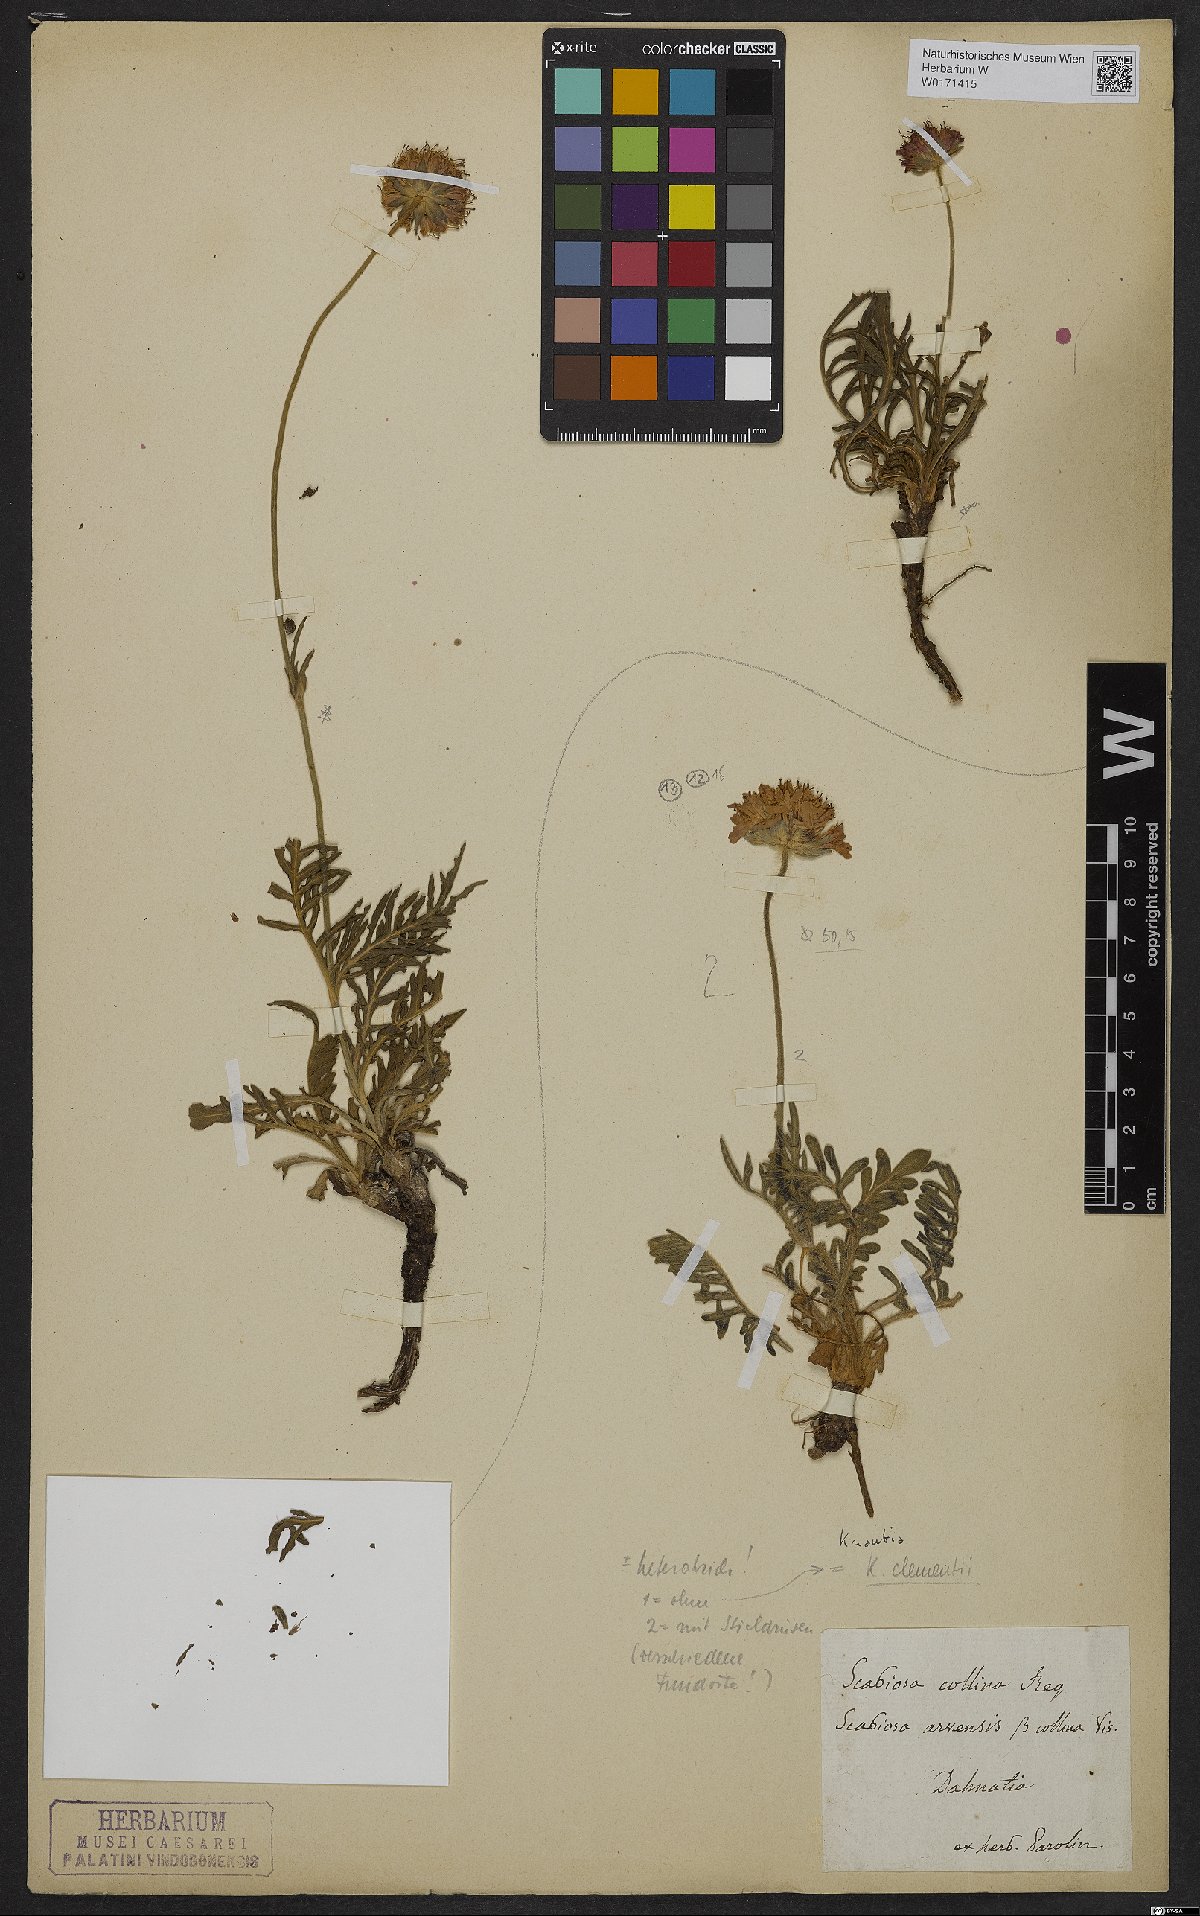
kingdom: Plantae
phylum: Tracheophyta
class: Magnoliopsida
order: Dipsacales
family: Caprifoliaceae
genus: Knautia
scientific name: Knautia clementii
